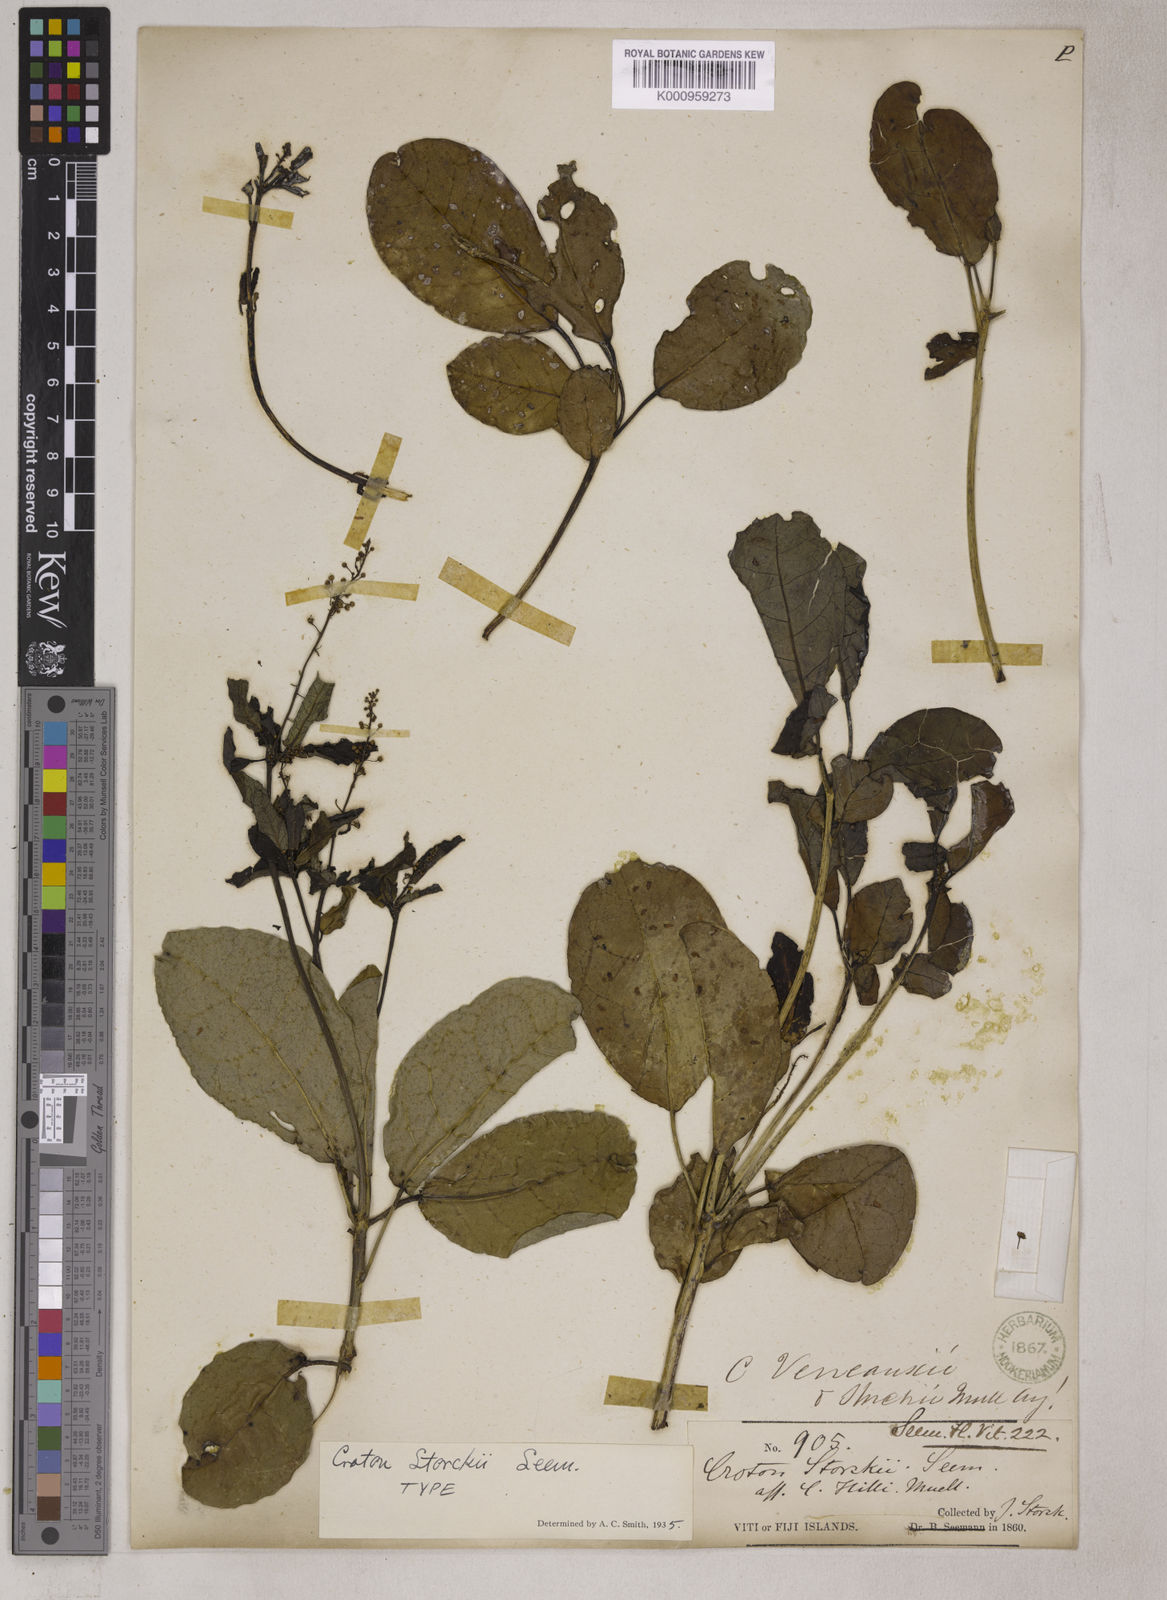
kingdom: Plantae
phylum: Tracheophyta
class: Magnoliopsida
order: Malpighiales
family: Euphorbiaceae
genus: Croton
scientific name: Croton microtiglium
